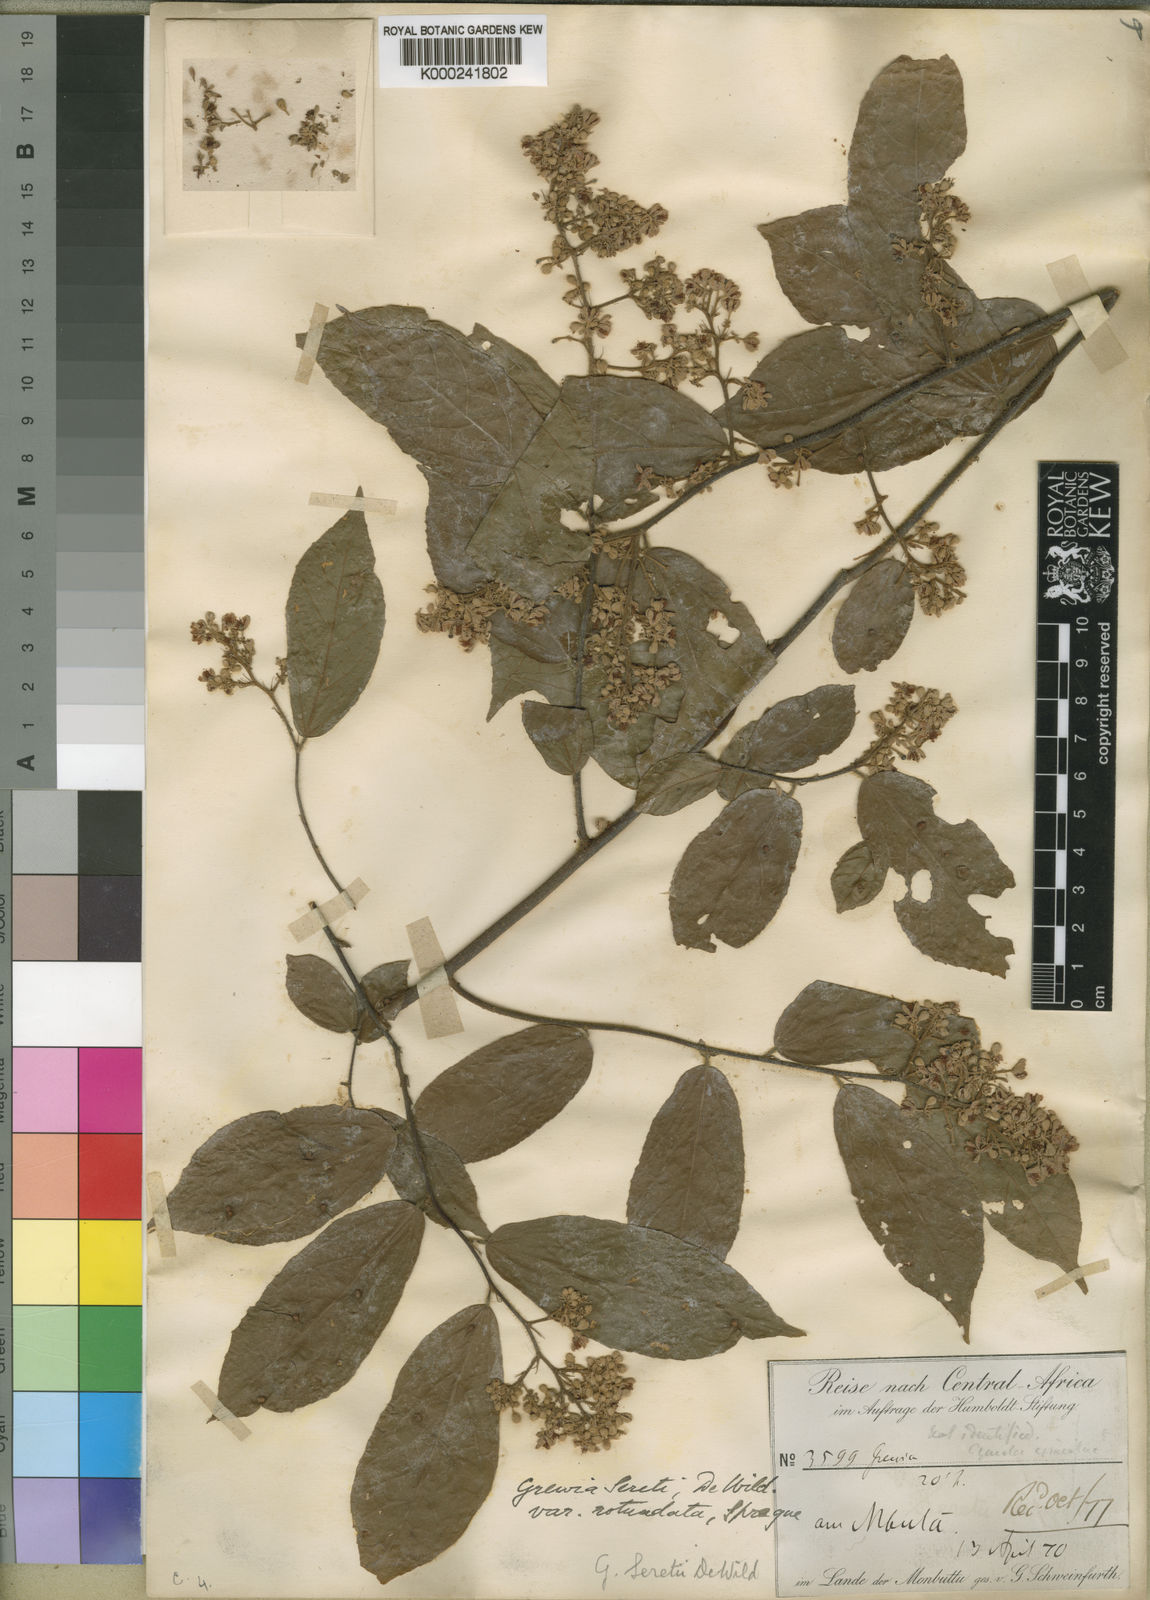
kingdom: Plantae
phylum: Tracheophyta
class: Magnoliopsida
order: Malvales
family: Malvaceae
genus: Microcos
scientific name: Microcos seretii
